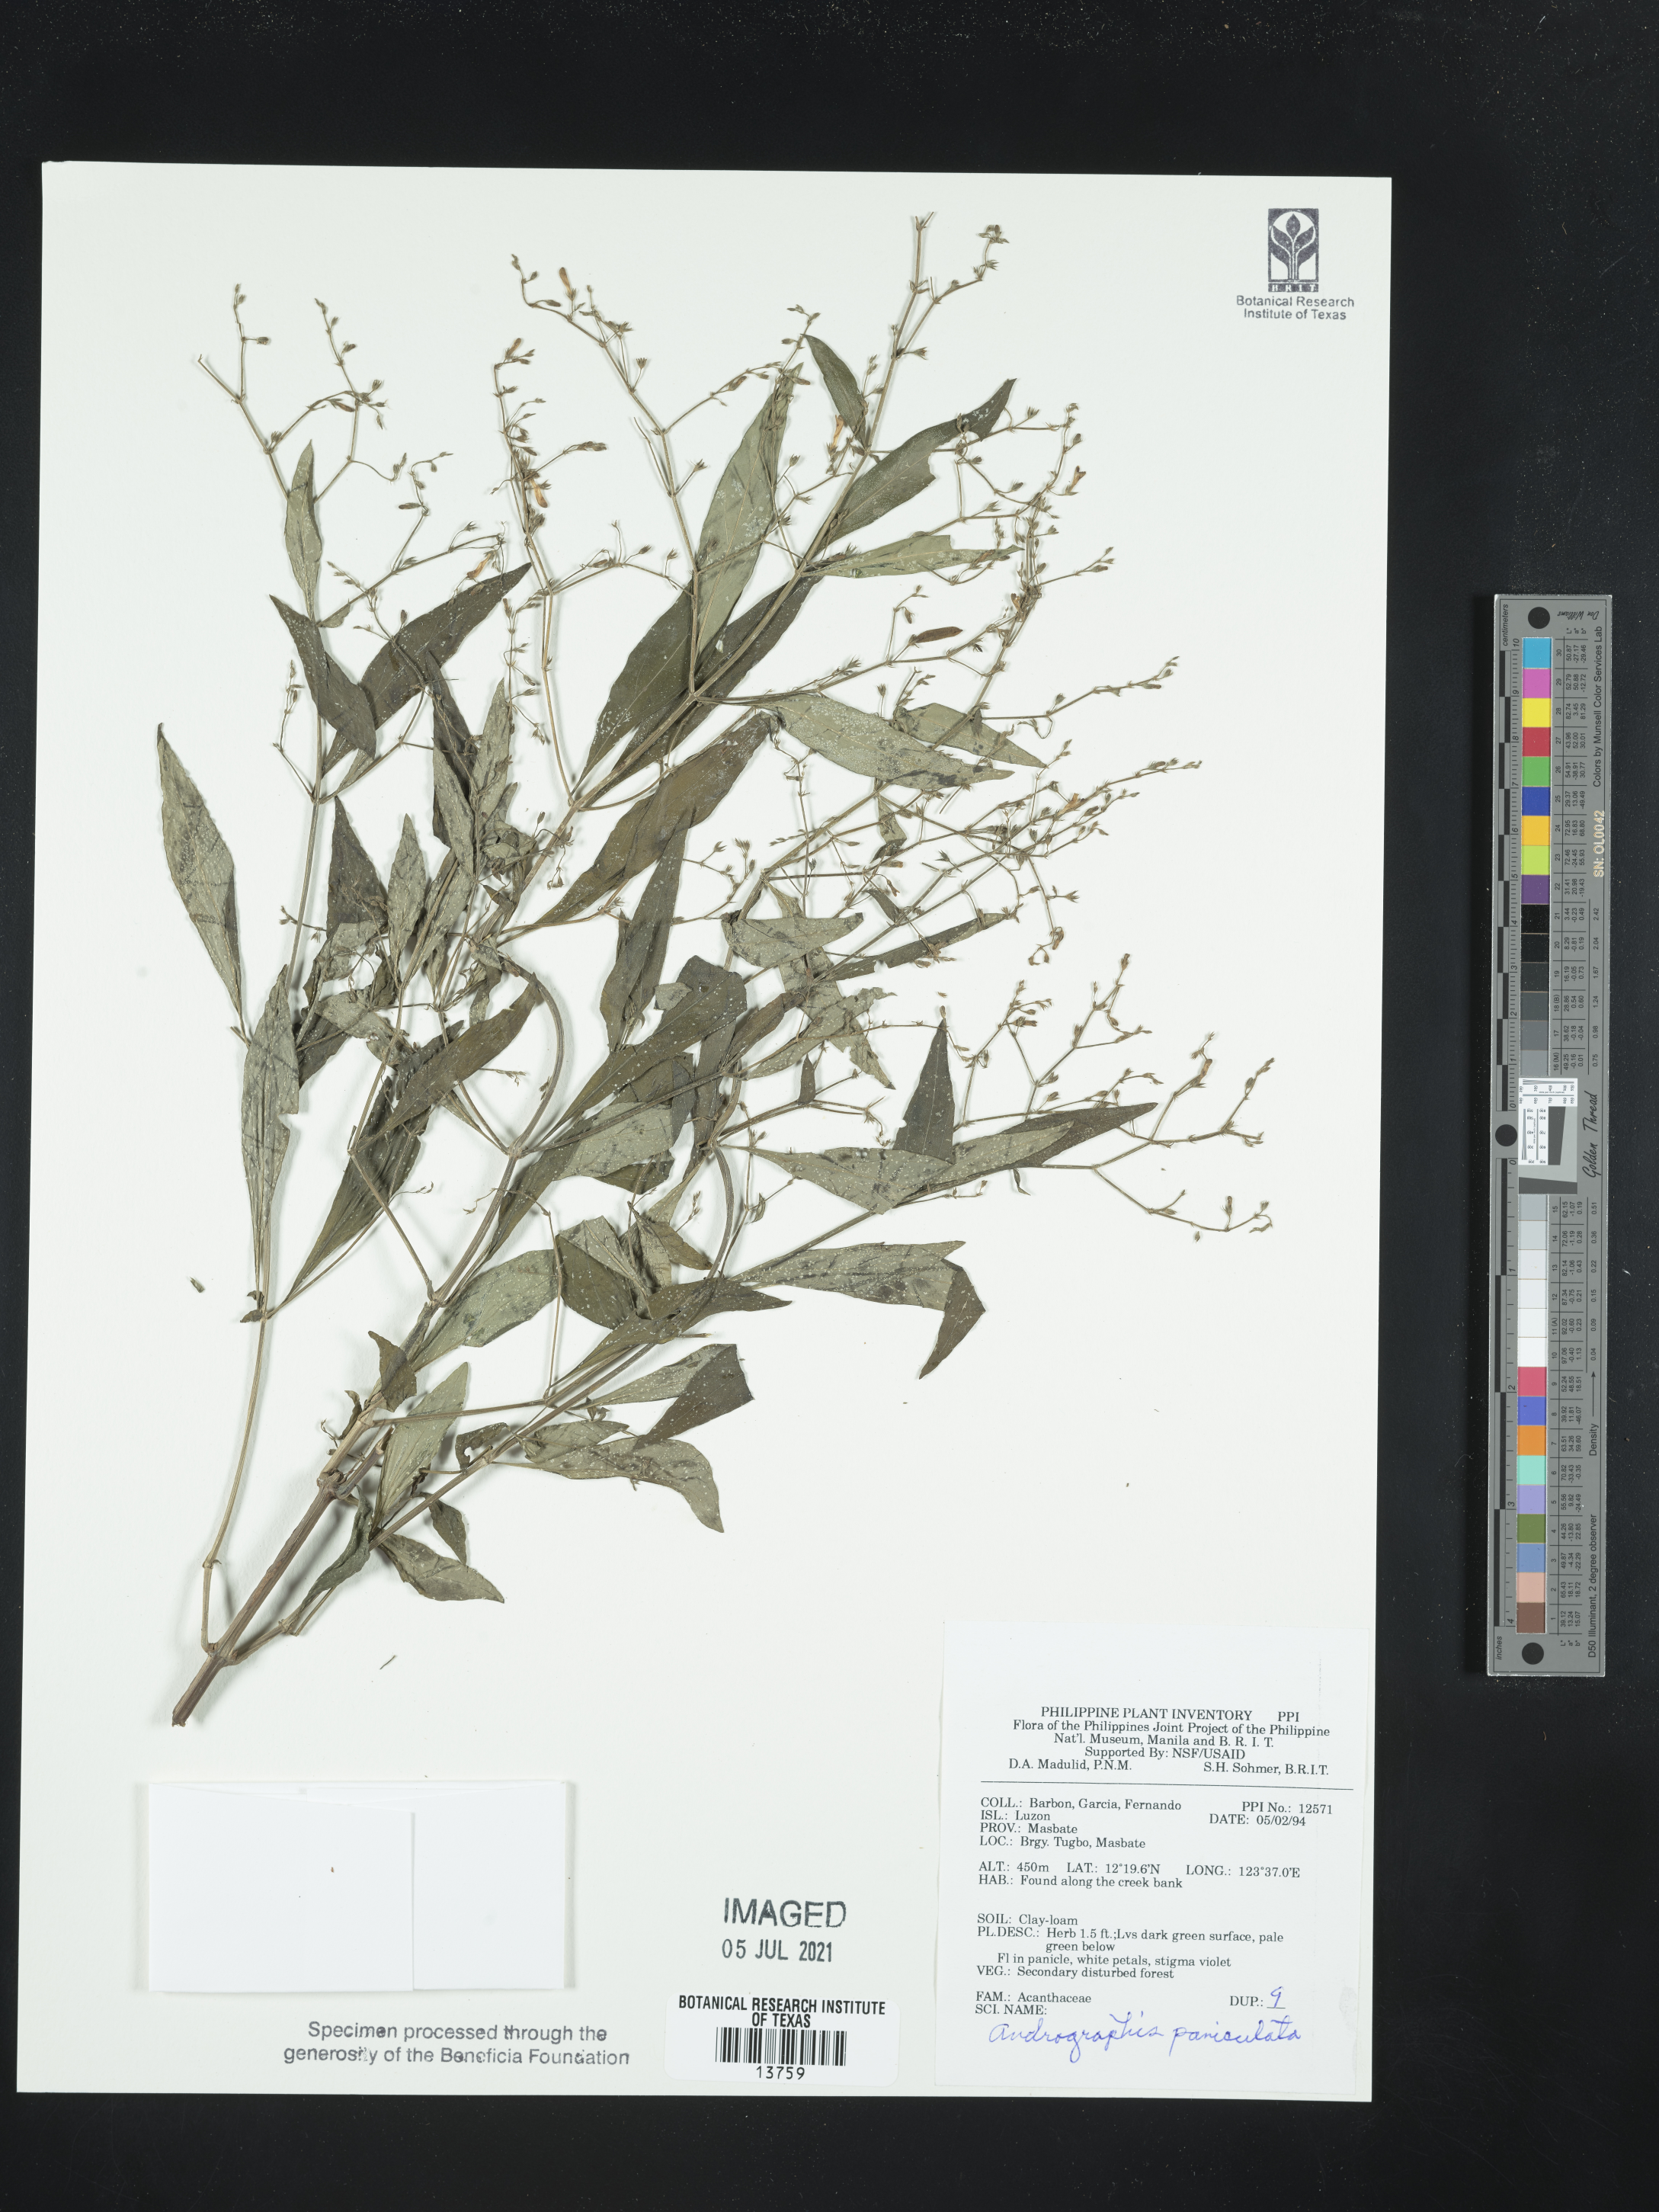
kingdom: Plantae
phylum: Tracheophyta
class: Magnoliopsida
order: Lamiales
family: Acanthaceae
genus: Andrographis
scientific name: Andrographis paniculata
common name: Green chireta
